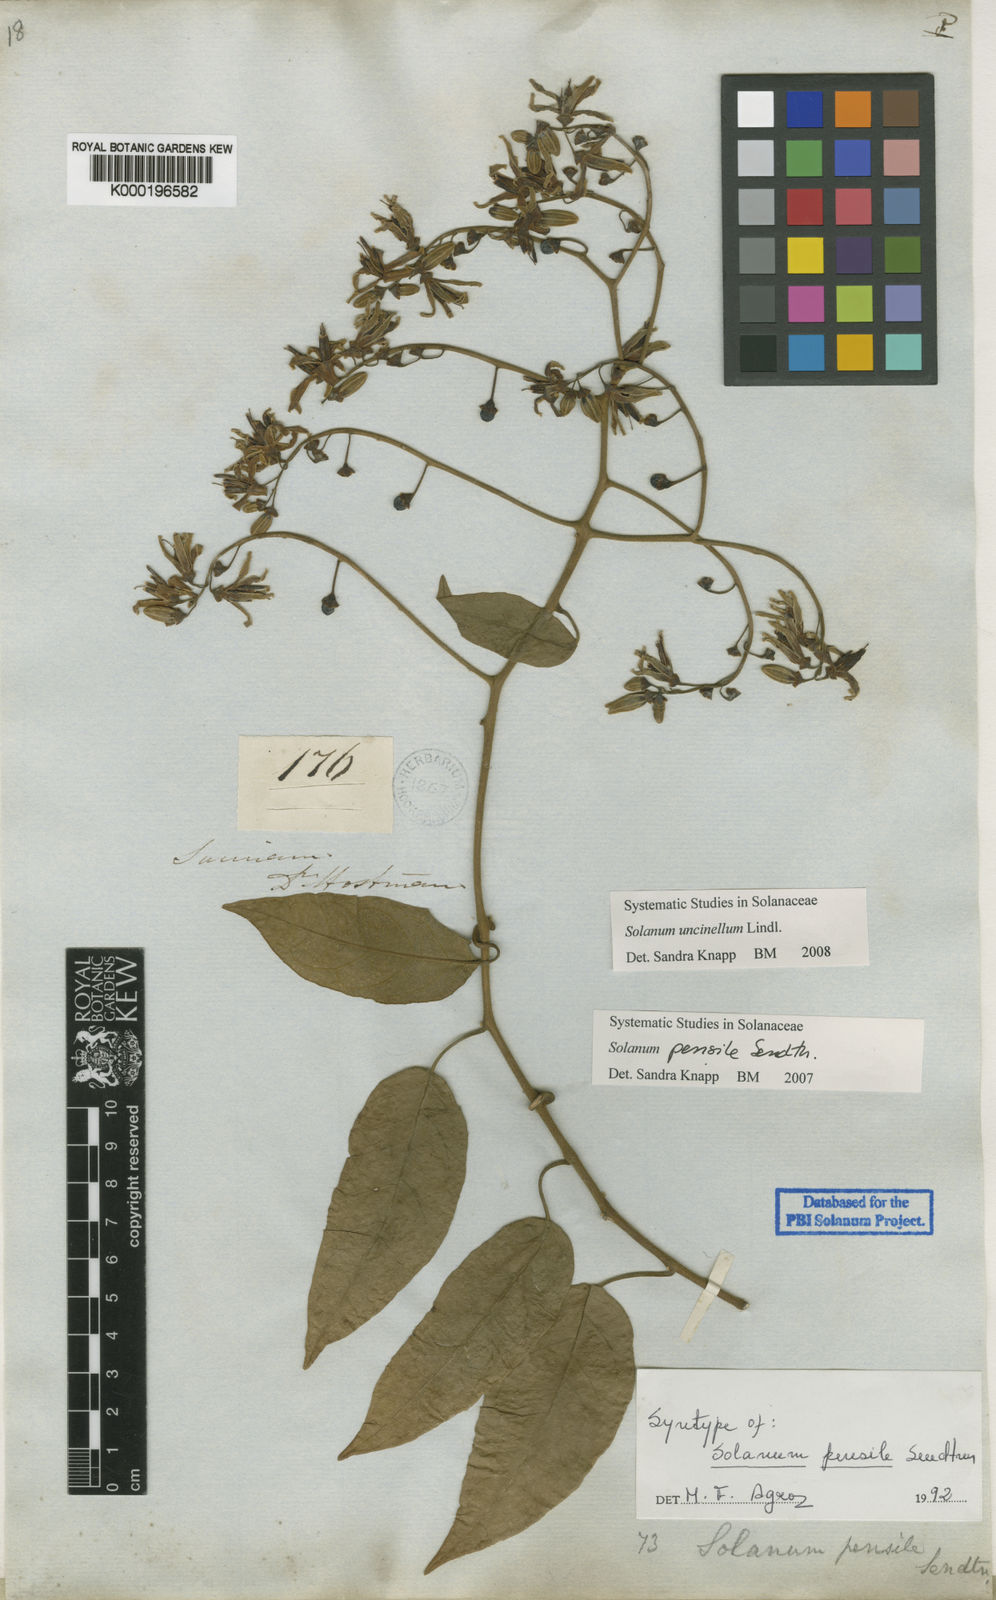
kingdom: Plantae
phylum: Tracheophyta
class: Magnoliopsida
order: Solanales
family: Solanaceae
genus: Solanum
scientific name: Solanum uncinellum
